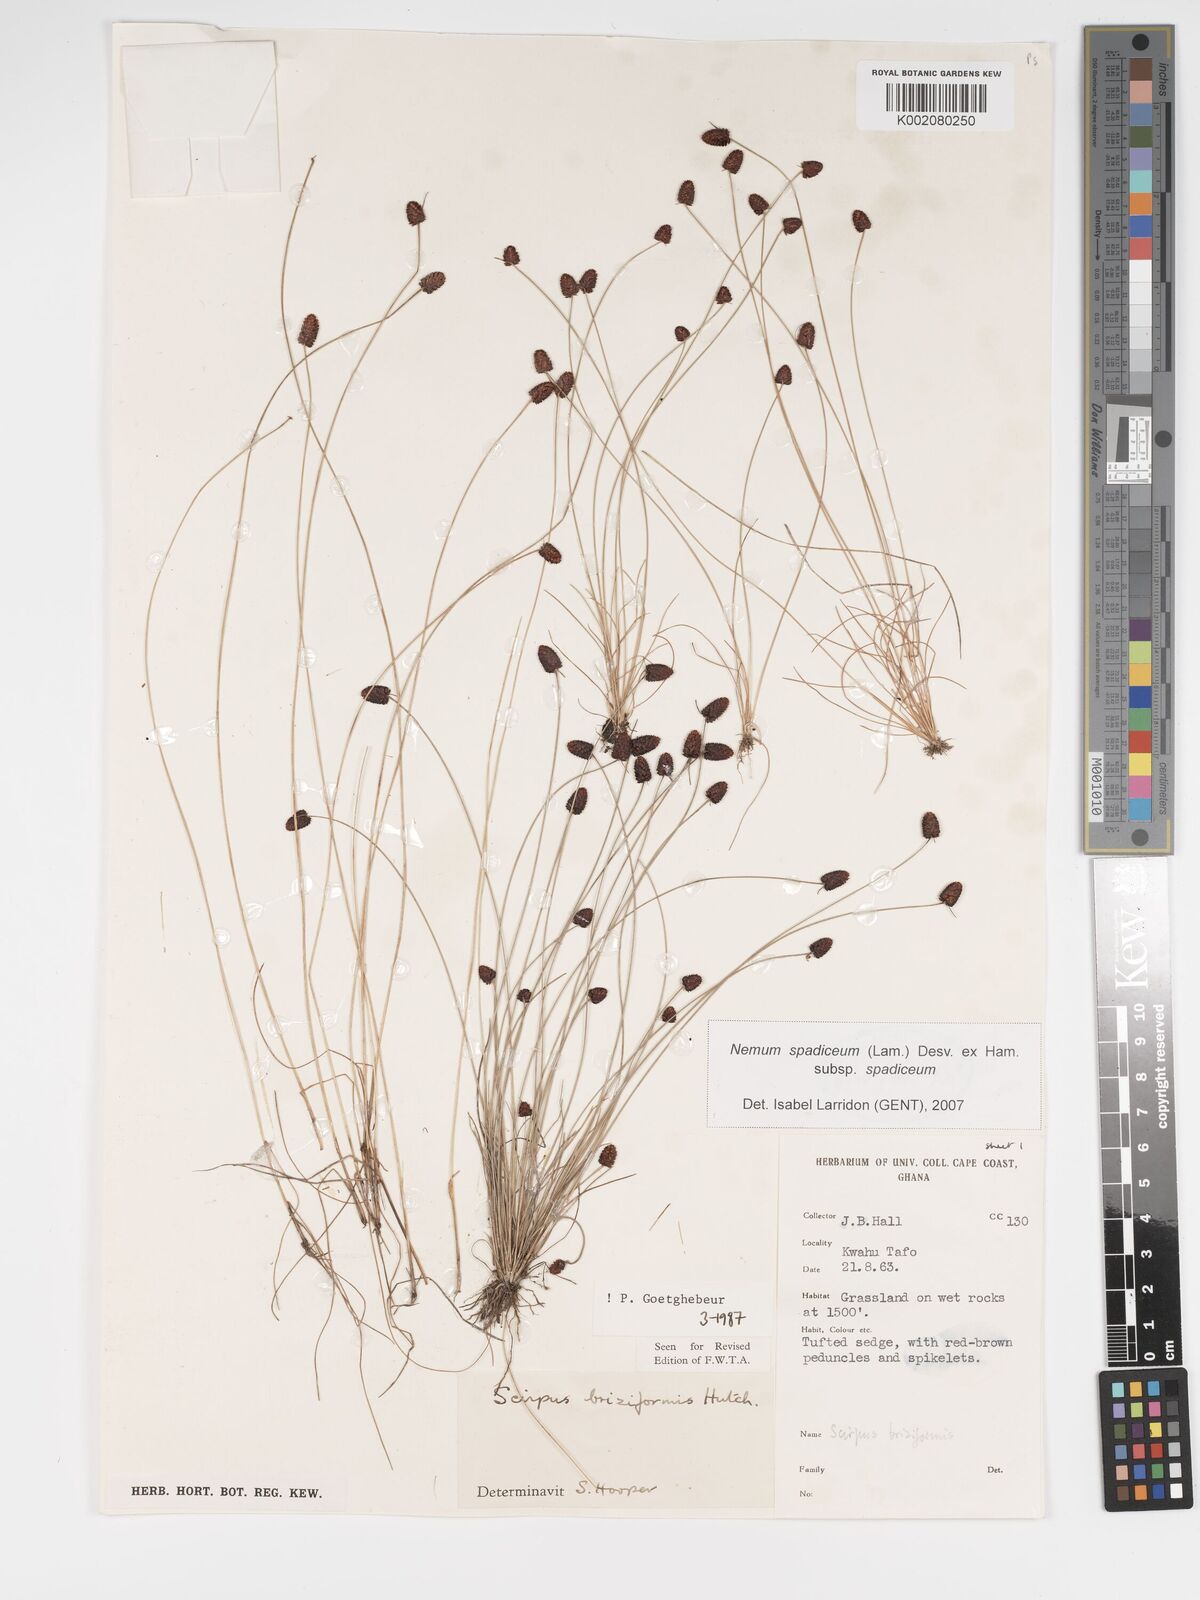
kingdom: Plantae
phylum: Tracheophyta
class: Liliopsida
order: Poales
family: Cyperaceae
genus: Bulbostylis
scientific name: Bulbostylis briziformis
